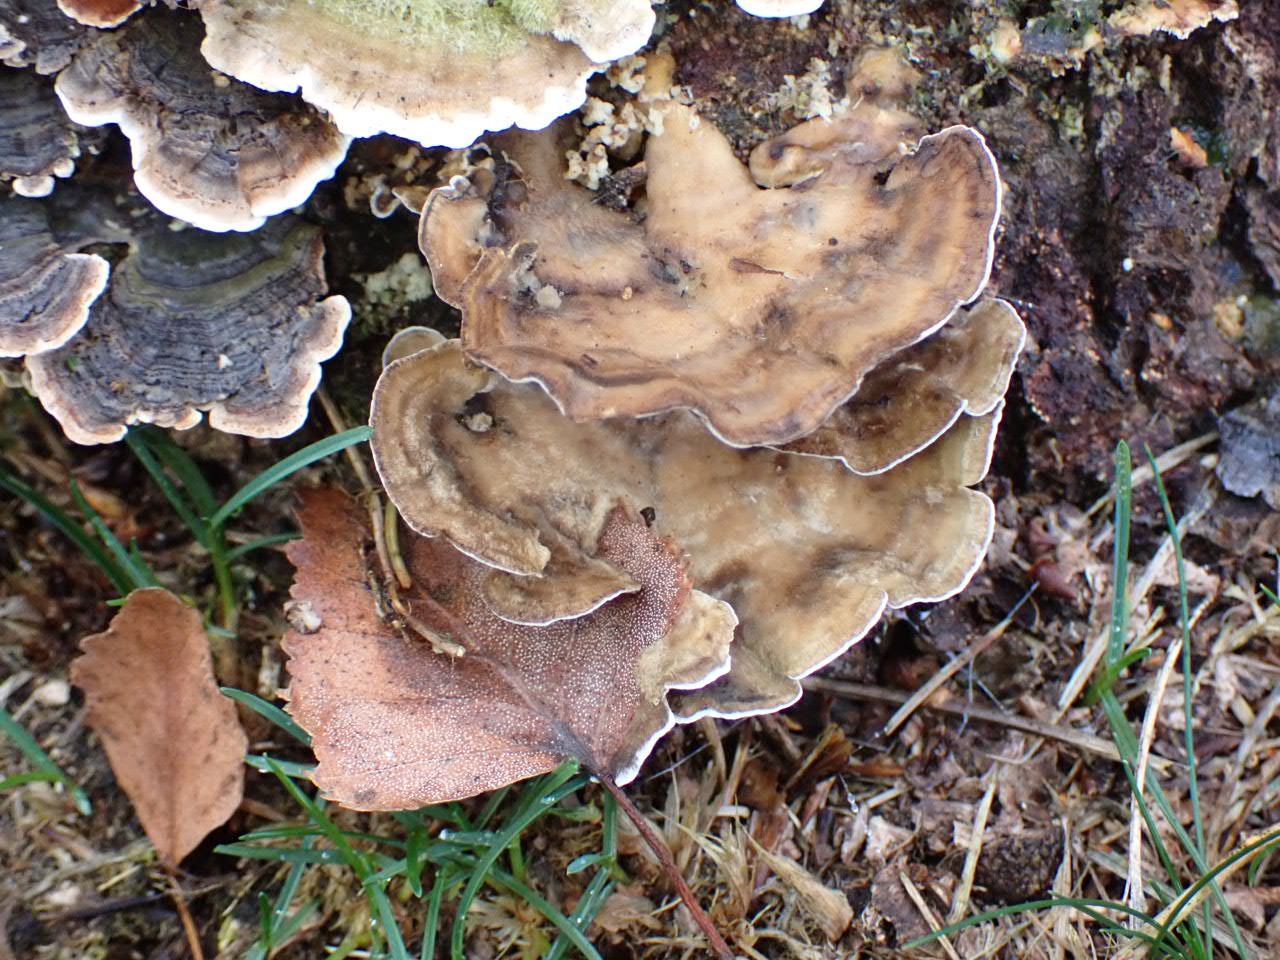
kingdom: Fungi
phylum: Basidiomycota
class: Agaricomycetes
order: Polyporales
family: Phanerochaetaceae
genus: Bjerkandera
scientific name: Bjerkandera adusta
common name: sveden sodporesvamp
